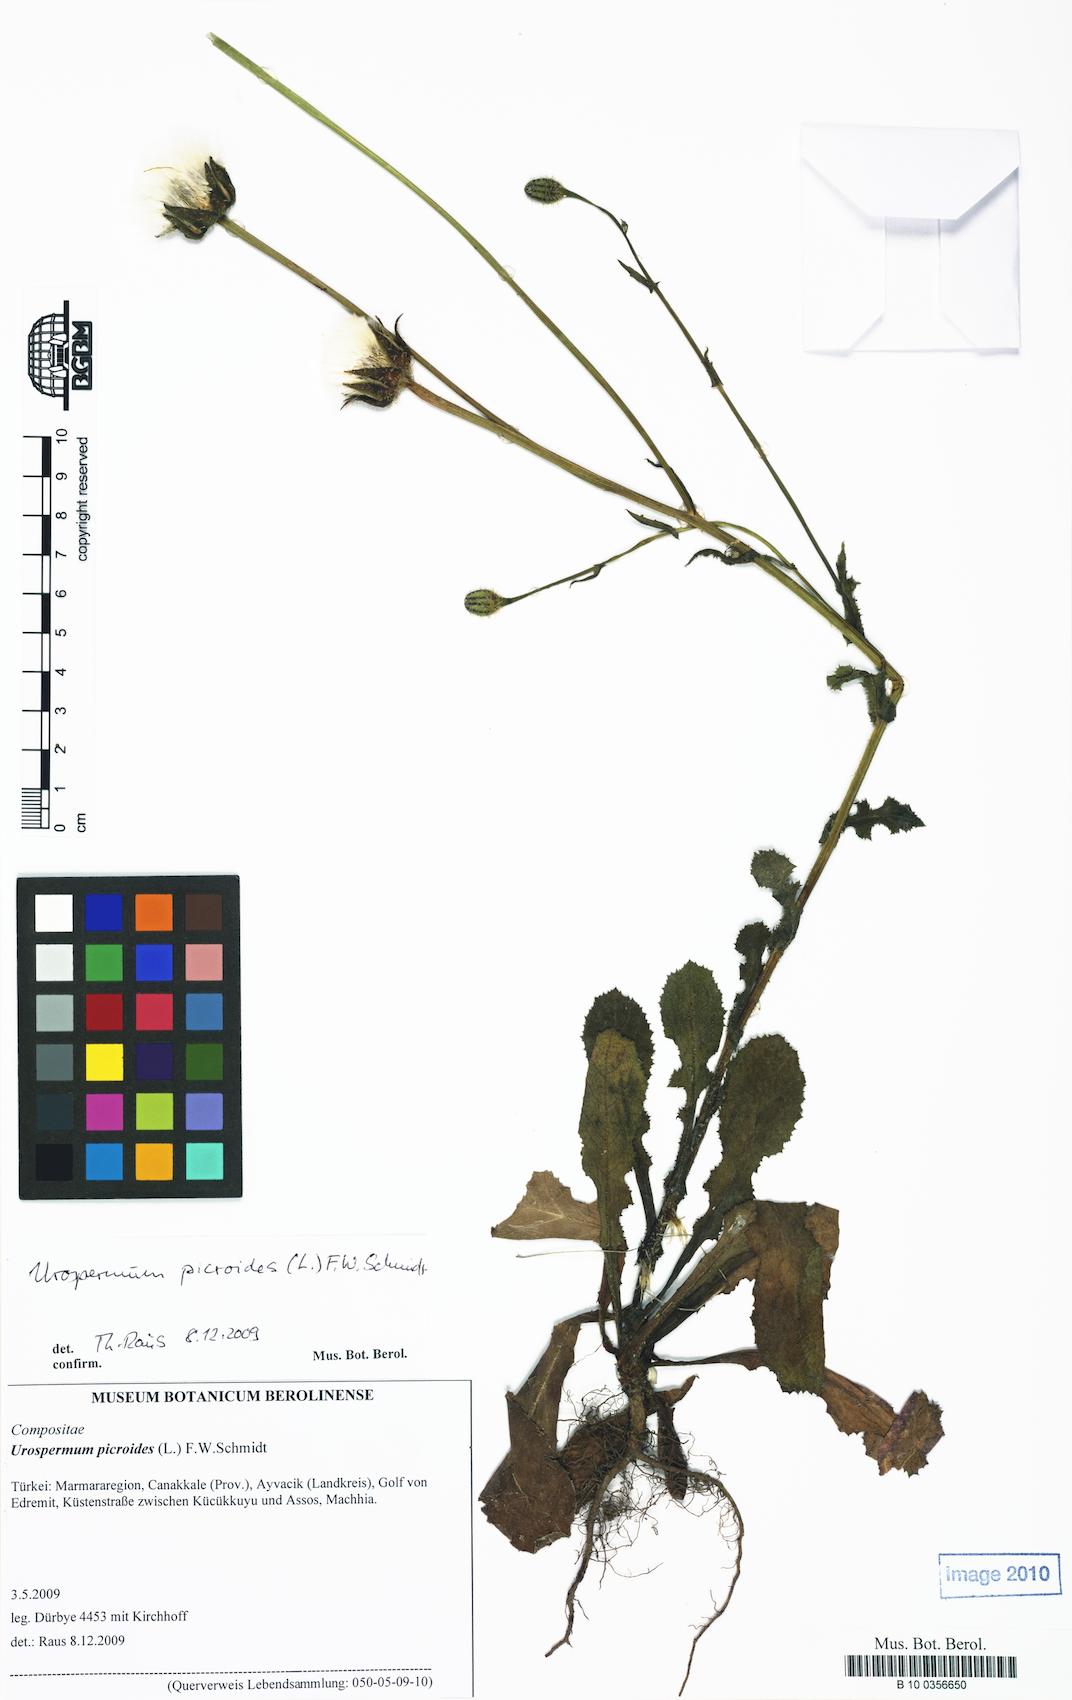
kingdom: Plantae
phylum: Tracheophyta
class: Magnoliopsida
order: Asterales
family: Asteraceae
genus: Urospermum
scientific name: Urospermum picroides
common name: False hawkbit
